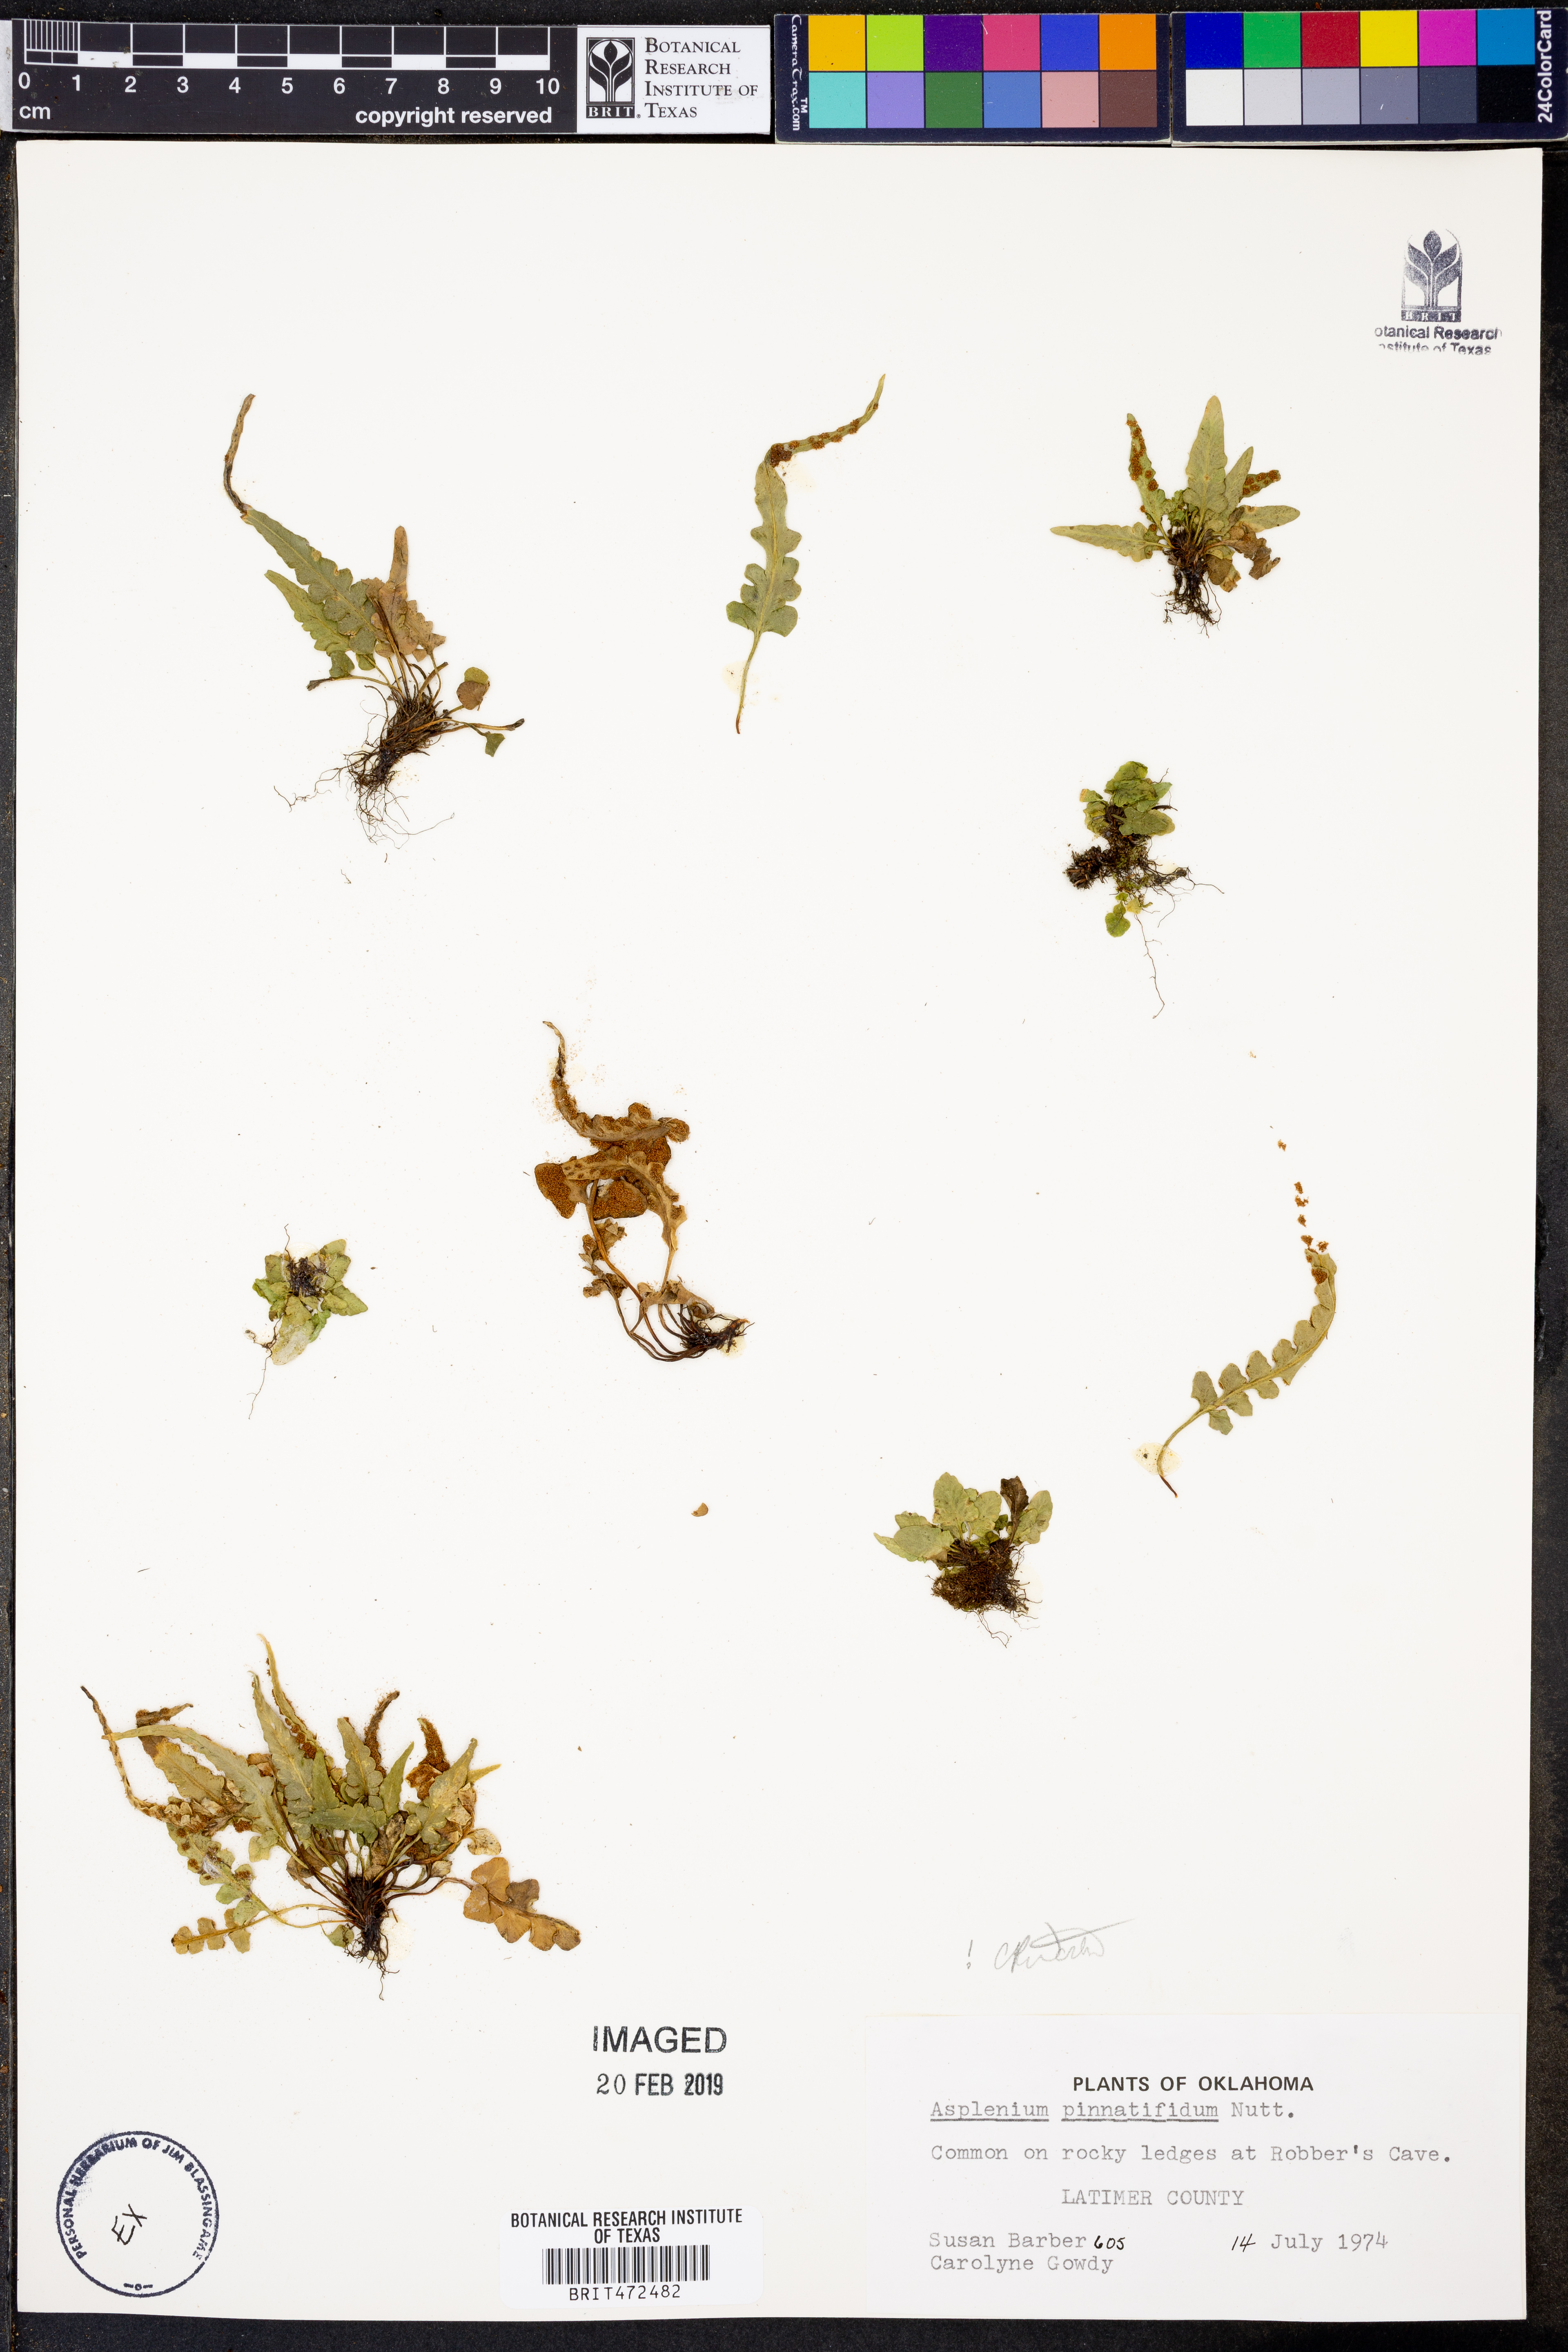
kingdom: Plantae
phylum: Tracheophyta
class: Polypodiopsida
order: Polypodiales
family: Aspleniaceae
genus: Asplenium
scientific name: Asplenium pinnatifidum
